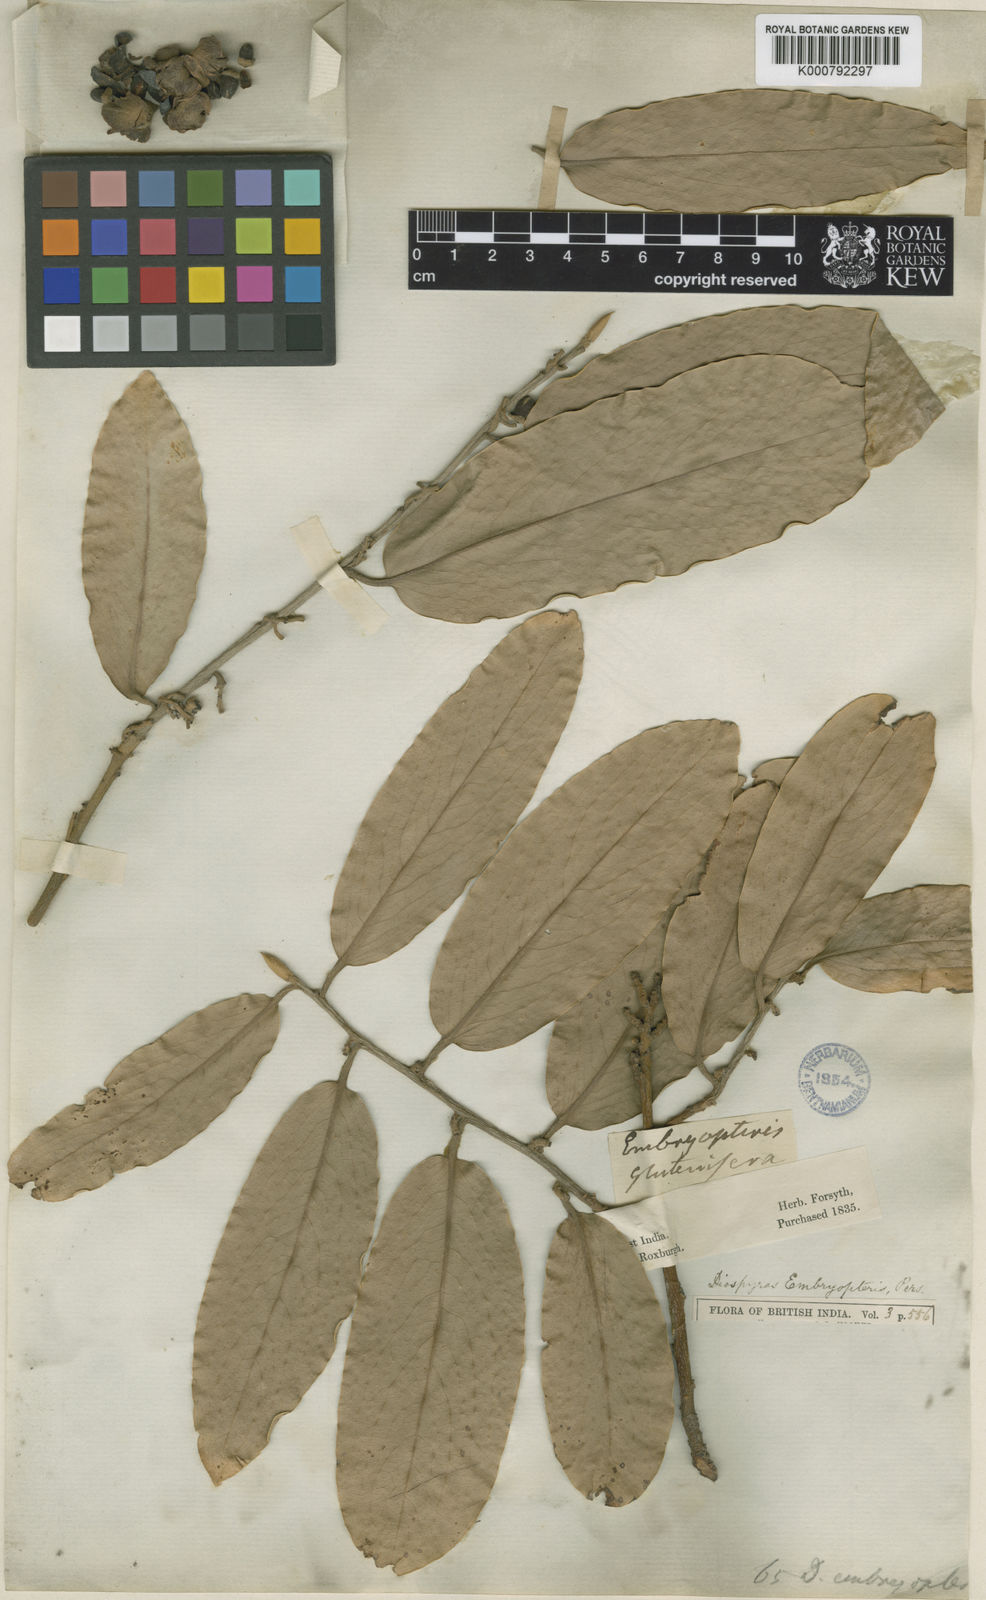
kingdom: Plantae
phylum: Tracheophyta
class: Magnoliopsida
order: Ericales
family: Ebenaceae
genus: Diospyros
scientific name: Diospyros malabarica
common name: Mountain ebony
